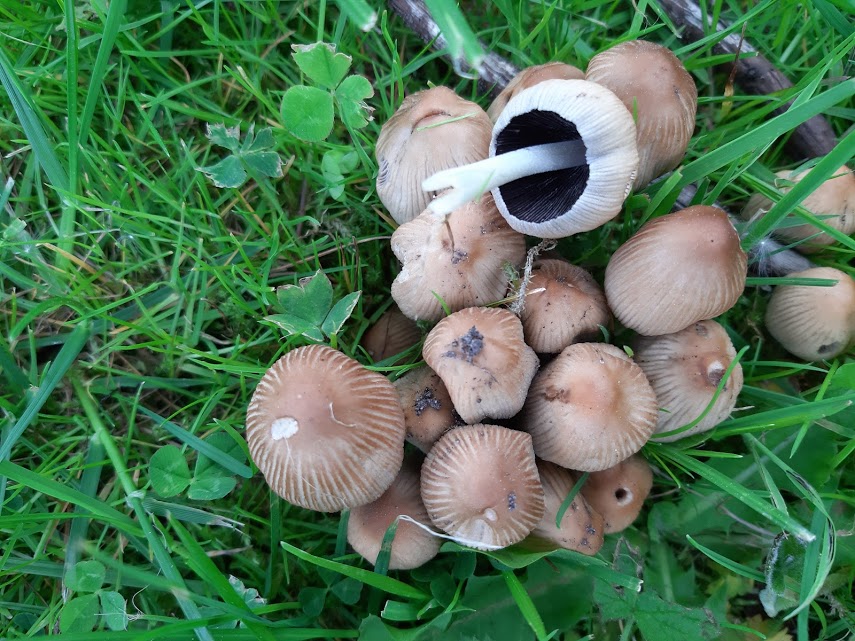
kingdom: Fungi
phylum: Basidiomycota
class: Agaricomycetes
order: Agaricales
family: Psathyrellaceae
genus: Coprinellus
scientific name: Coprinellus
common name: blækhat
